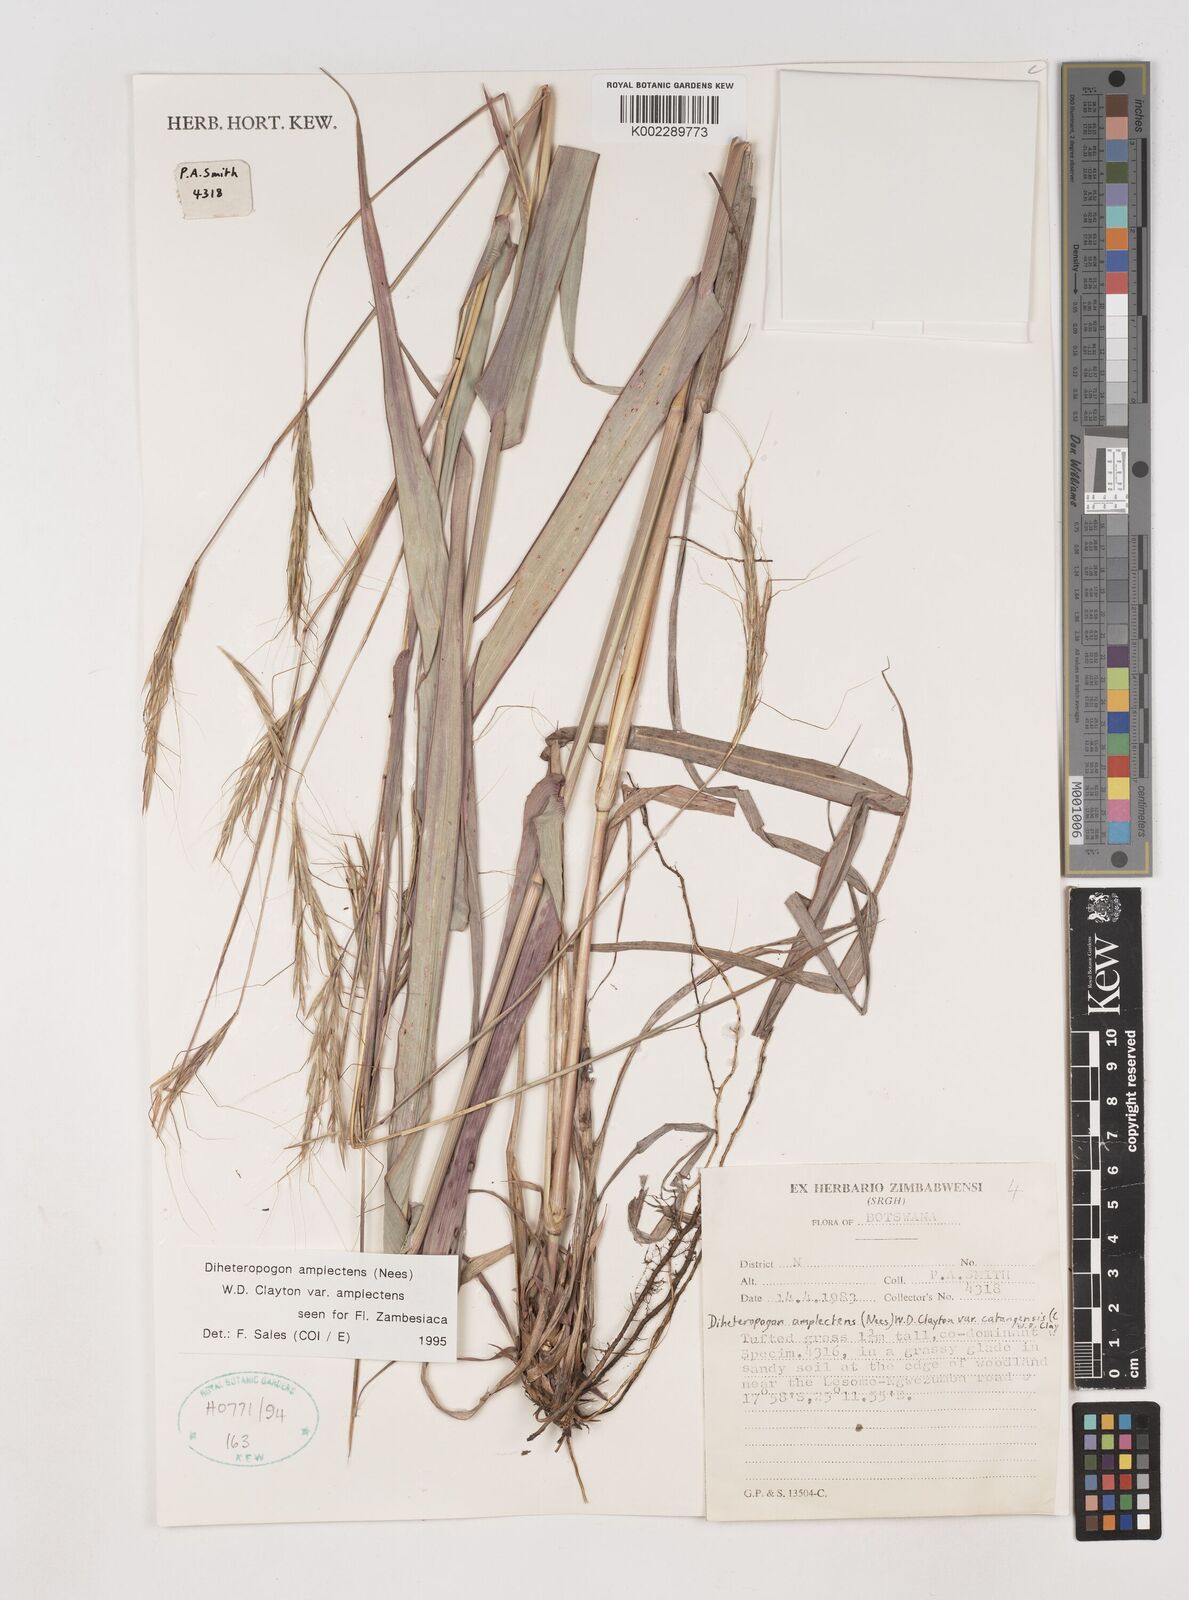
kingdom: Plantae
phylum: Tracheophyta
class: Liliopsida
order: Poales
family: Poaceae
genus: Diheteropogon
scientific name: Diheteropogon amplectens
